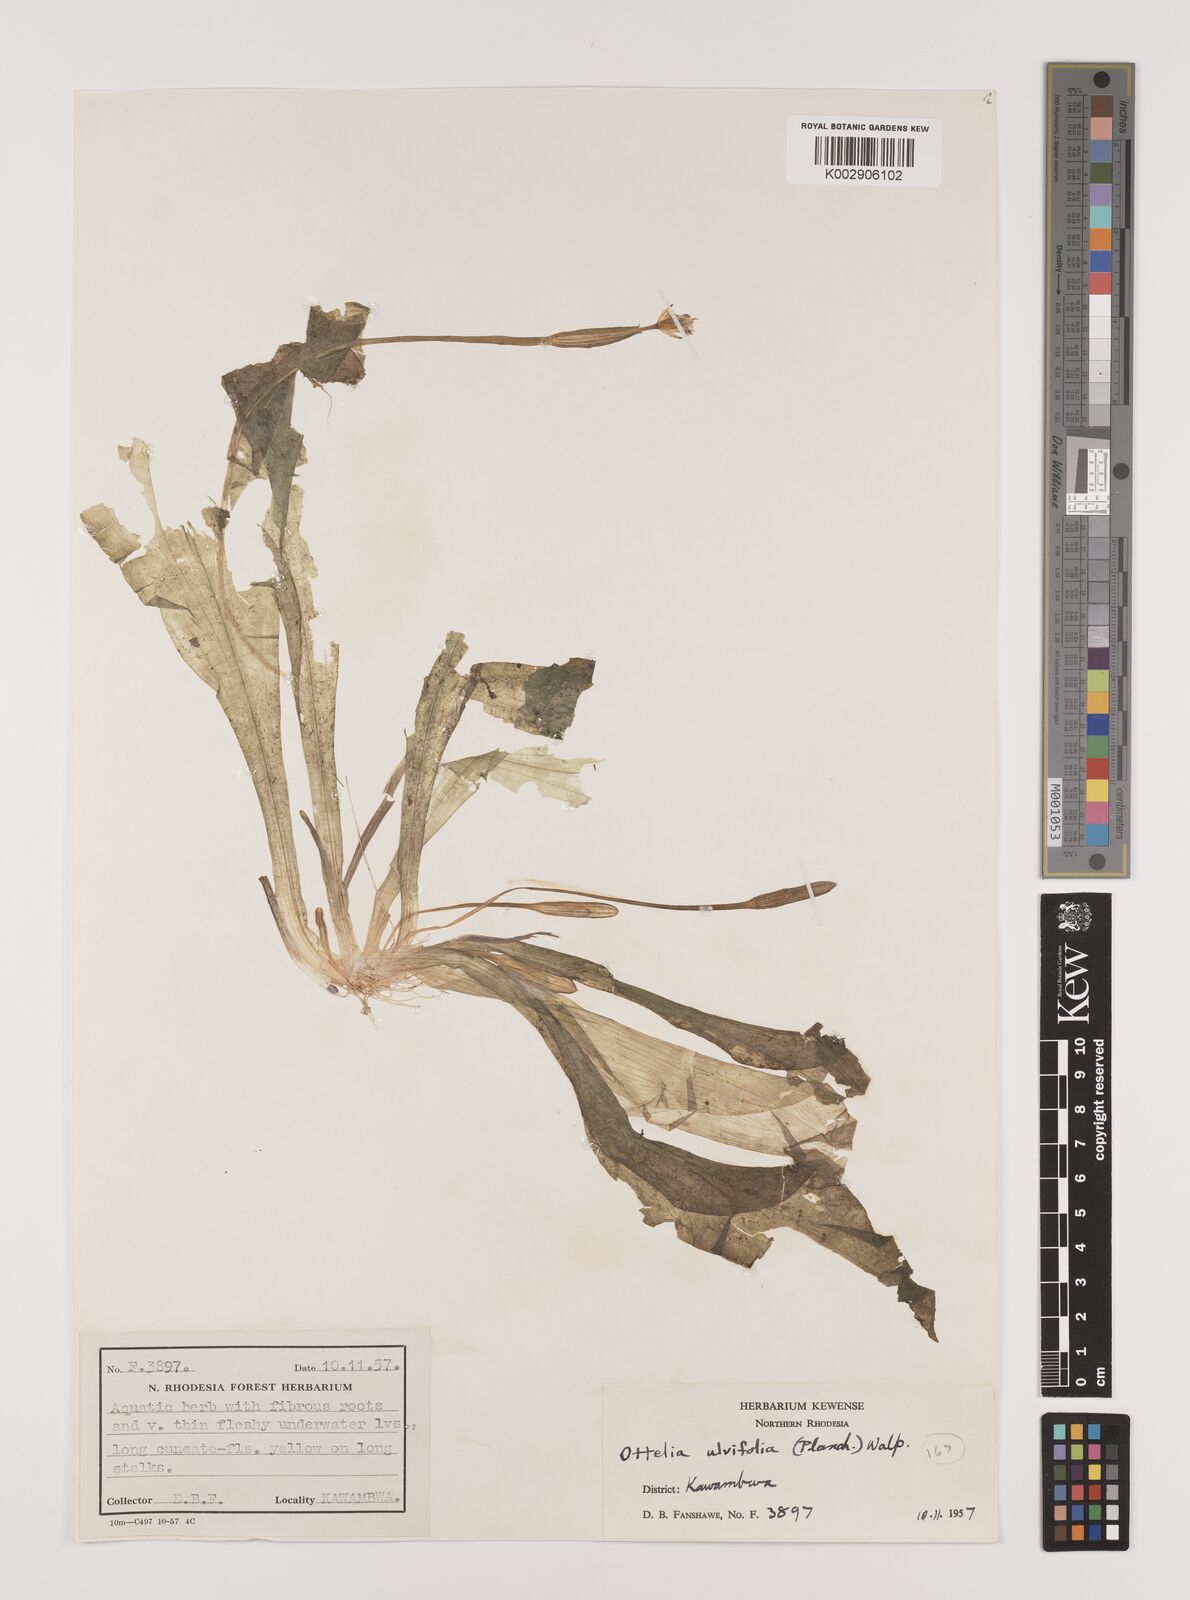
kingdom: Plantae
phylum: Tracheophyta
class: Liliopsida
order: Alismatales
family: Hydrocharitaceae
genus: Ottelia
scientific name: Ottelia ulvifolia
